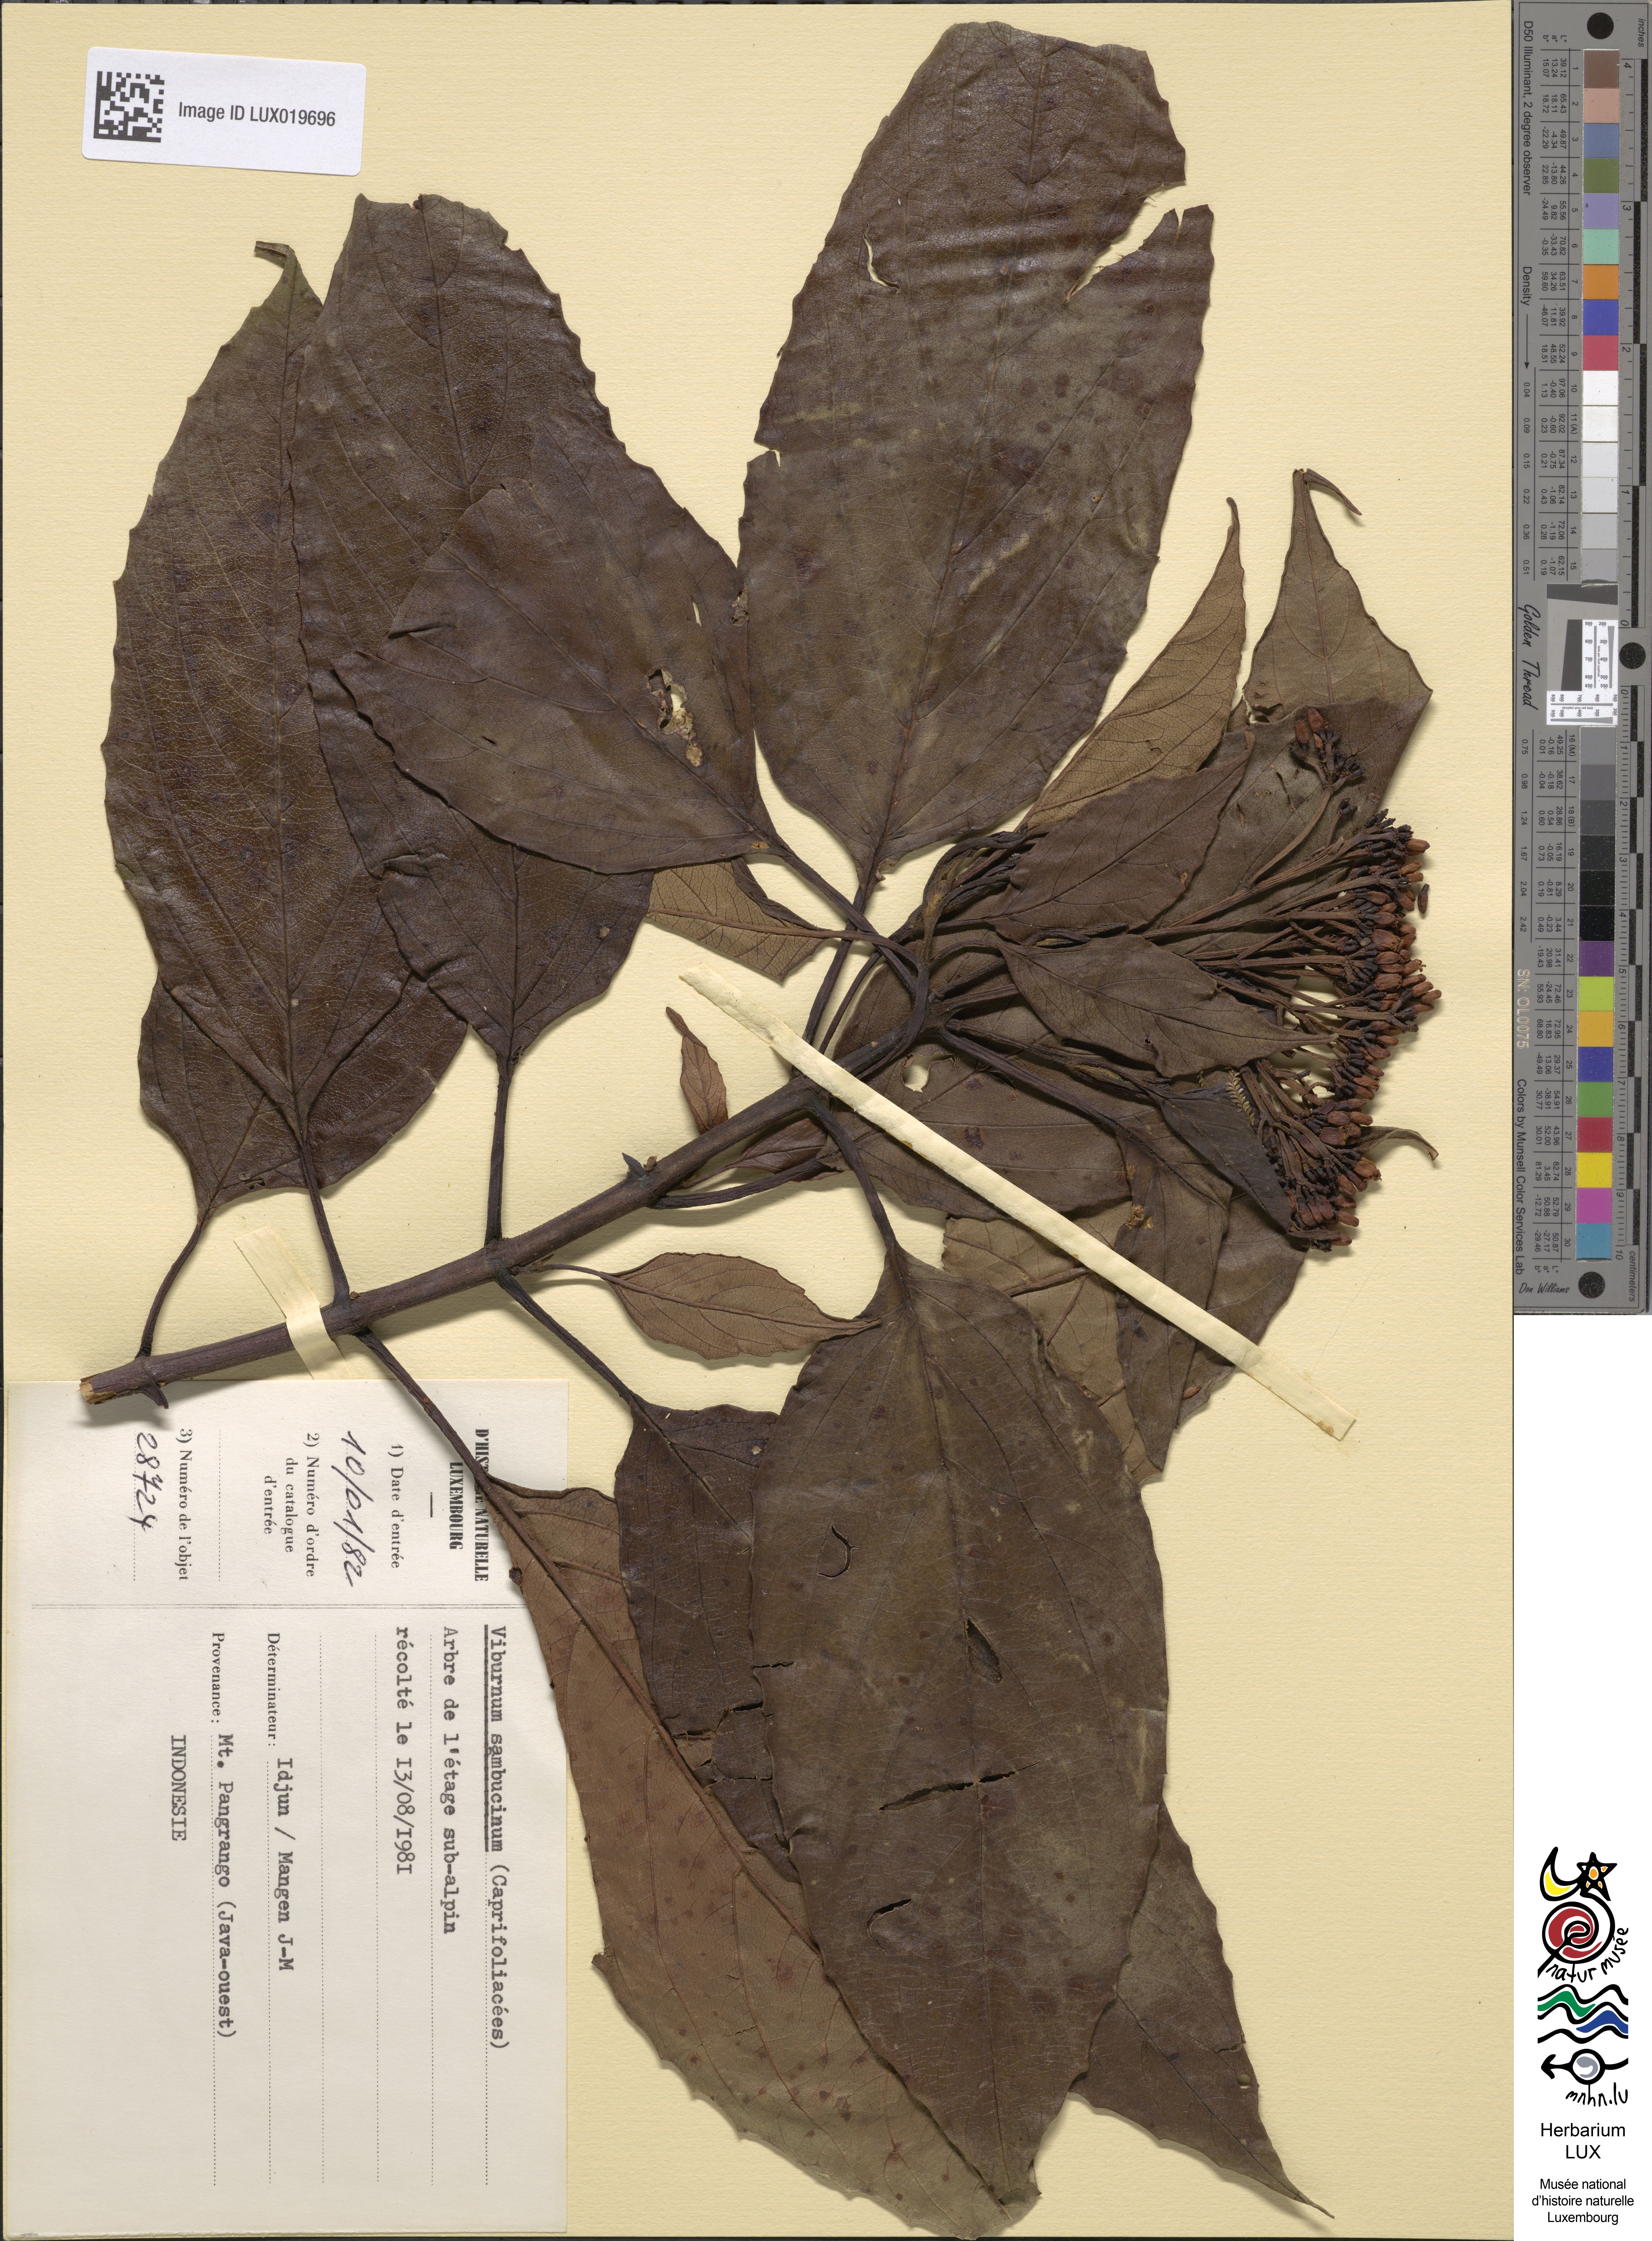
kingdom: Plantae
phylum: Tracheophyta
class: Magnoliopsida
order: Dipsacales
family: Viburnaceae
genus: Viburnum
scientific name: Viburnum sambucinum
